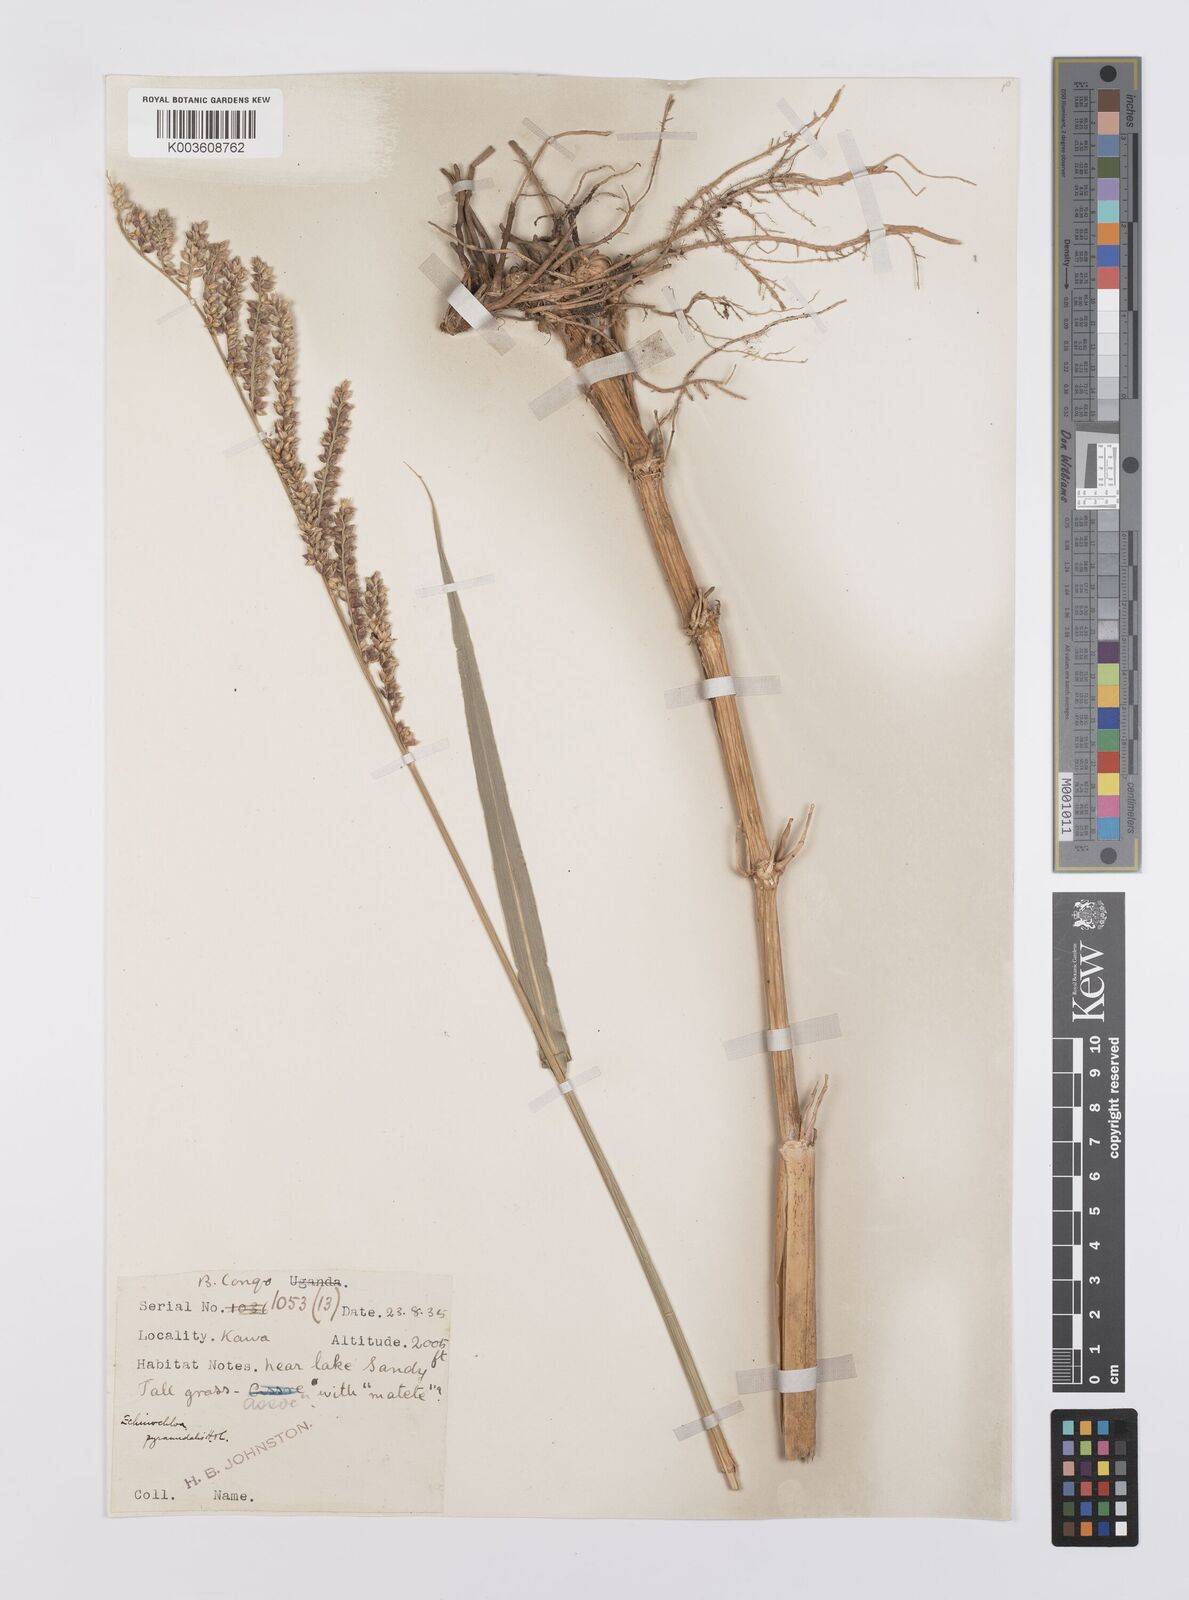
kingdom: Plantae
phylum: Tracheophyta
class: Liliopsida
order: Poales
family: Poaceae
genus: Echinochloa
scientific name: Echinochloa pyramidalis
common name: Antelope grass
